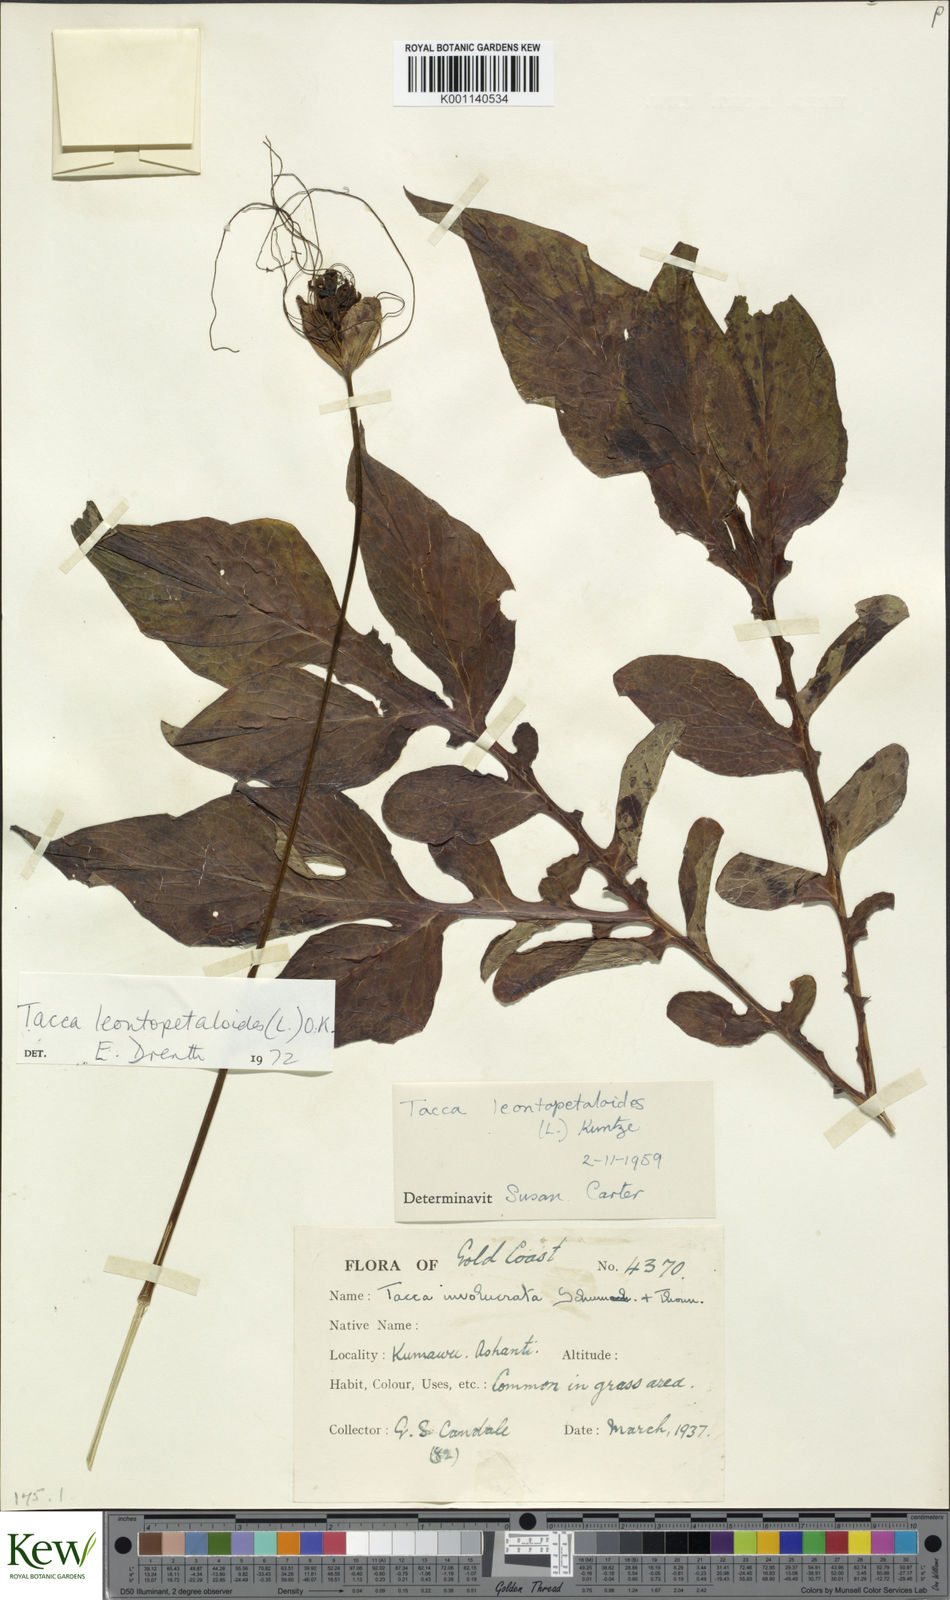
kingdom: Plantae
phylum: Tracheophyta
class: Liliopsida
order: Dioscoreales
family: Dioscoreaceae
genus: Tacca
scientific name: Tacca leontopetaloides
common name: Arrowroot
